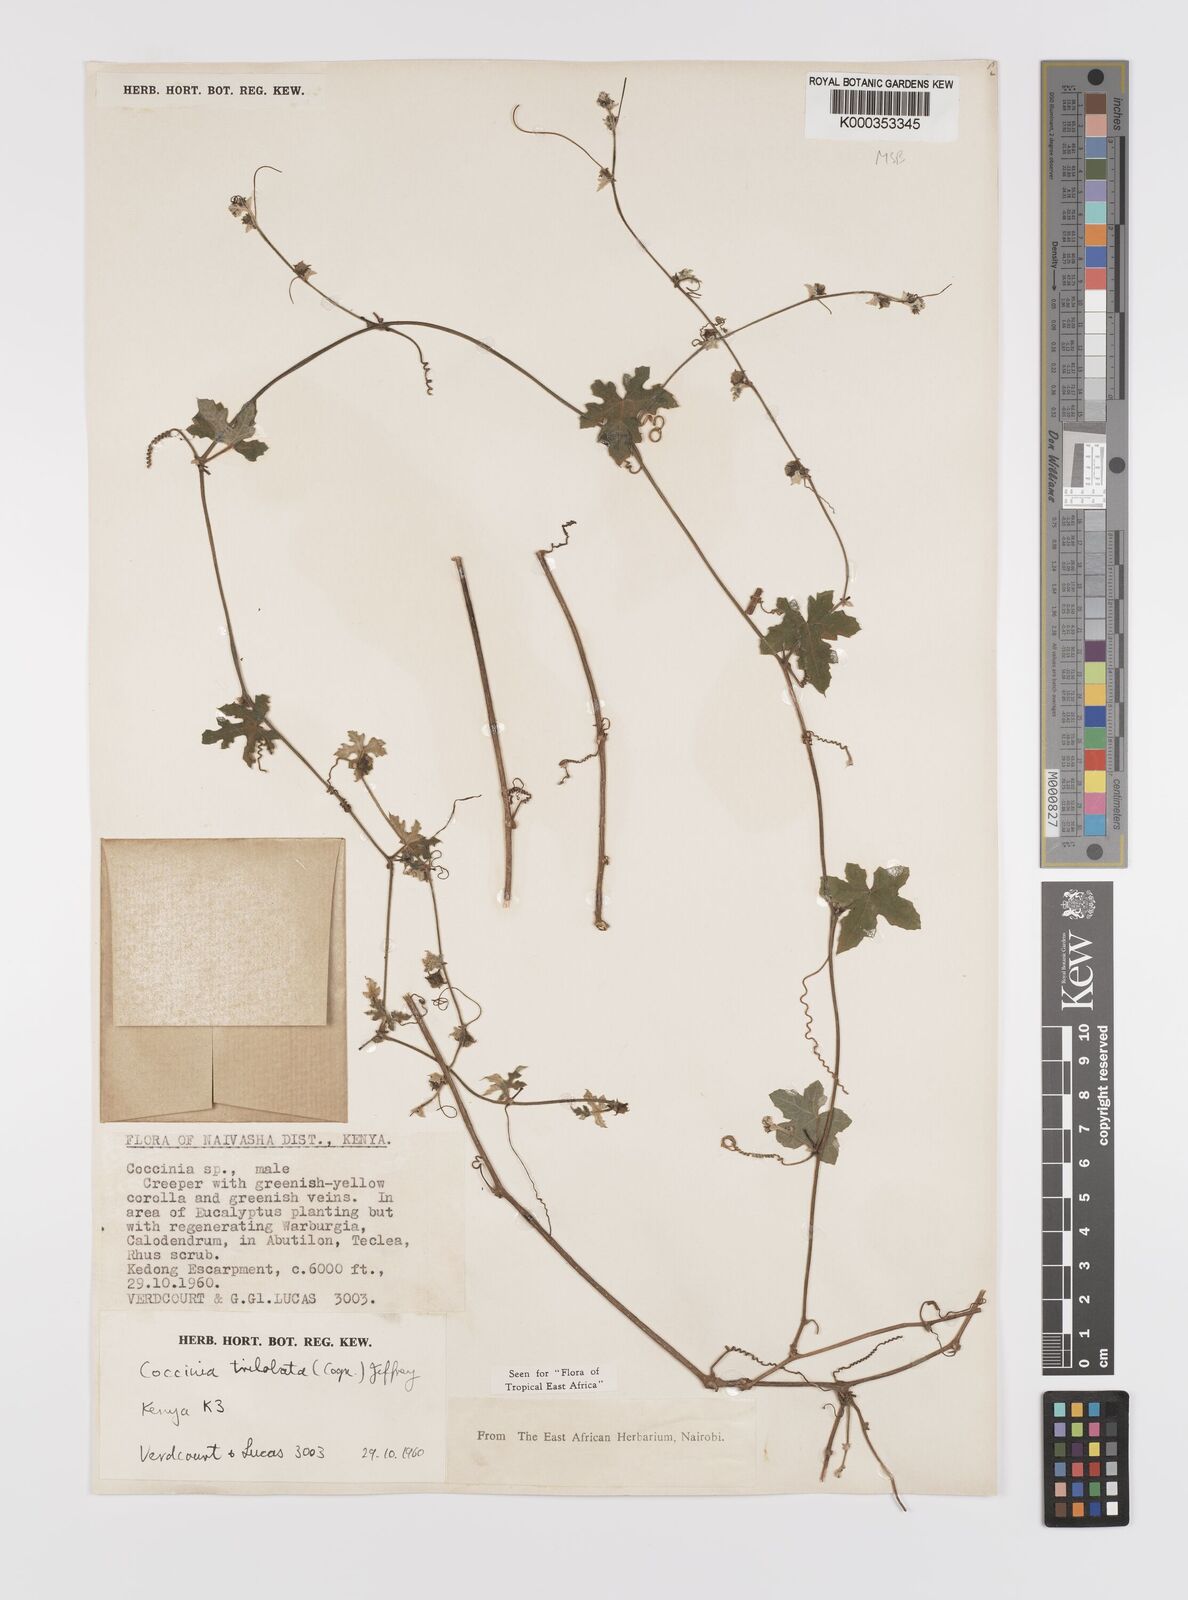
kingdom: Plantae
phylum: Tracheophyta
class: Magnoliopsida
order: Cucurbitales
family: Cucurbitaceae
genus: Coccinia
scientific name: Coccinia trilobata
